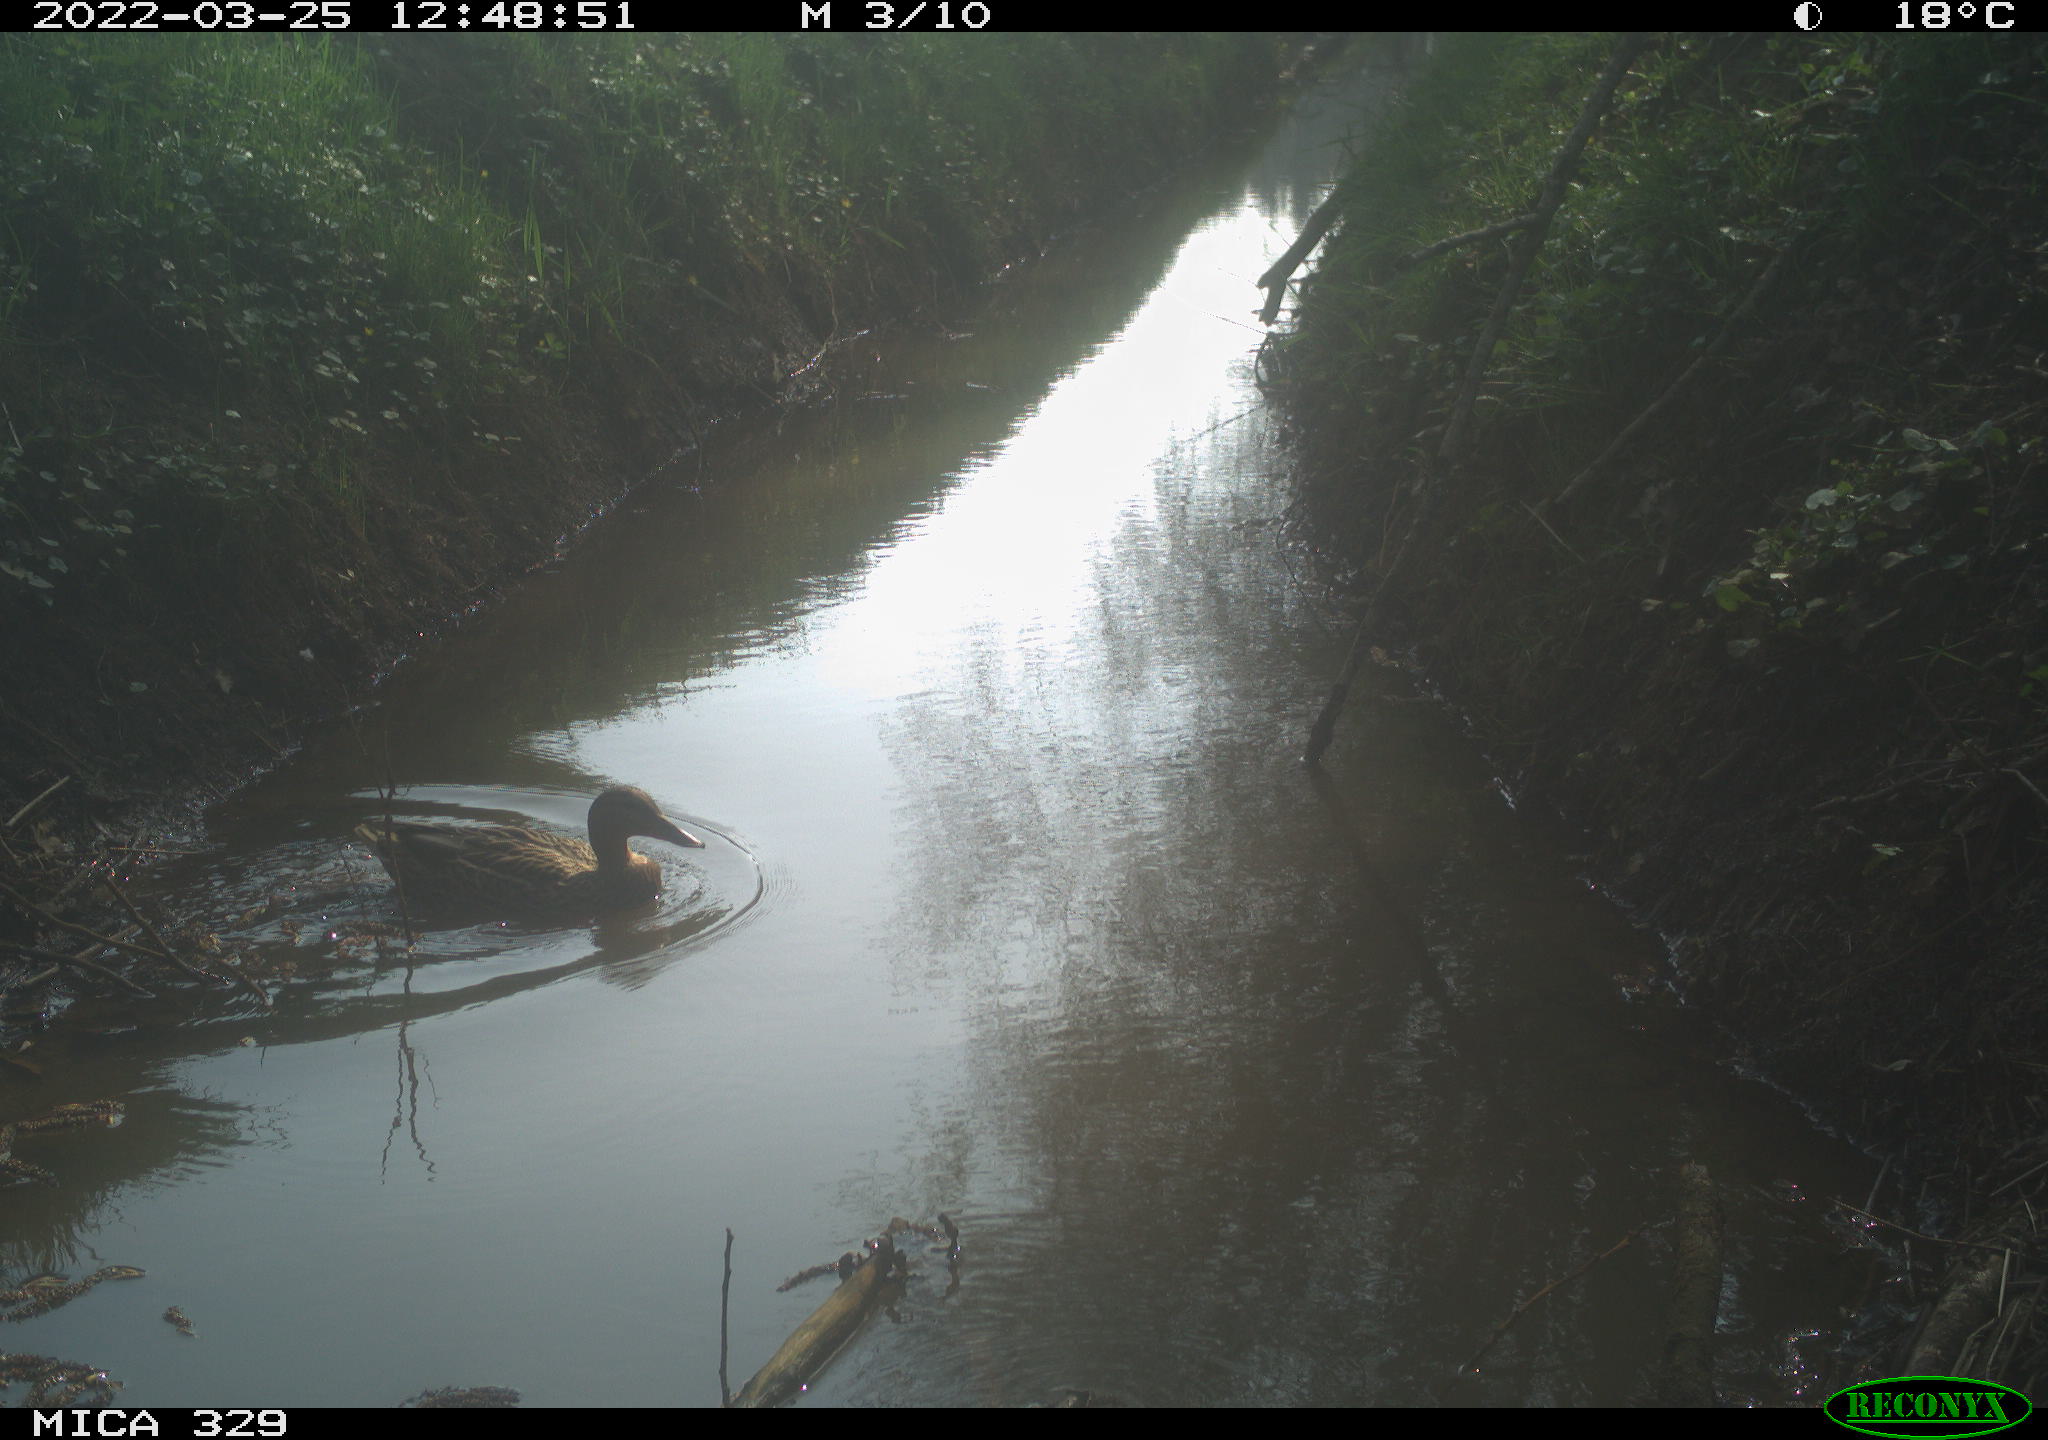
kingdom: Animalia
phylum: Chordata
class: Aves
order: Anseriformes
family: Anatidae
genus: Anas
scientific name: Anas platyrhynchos
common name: Mallard
